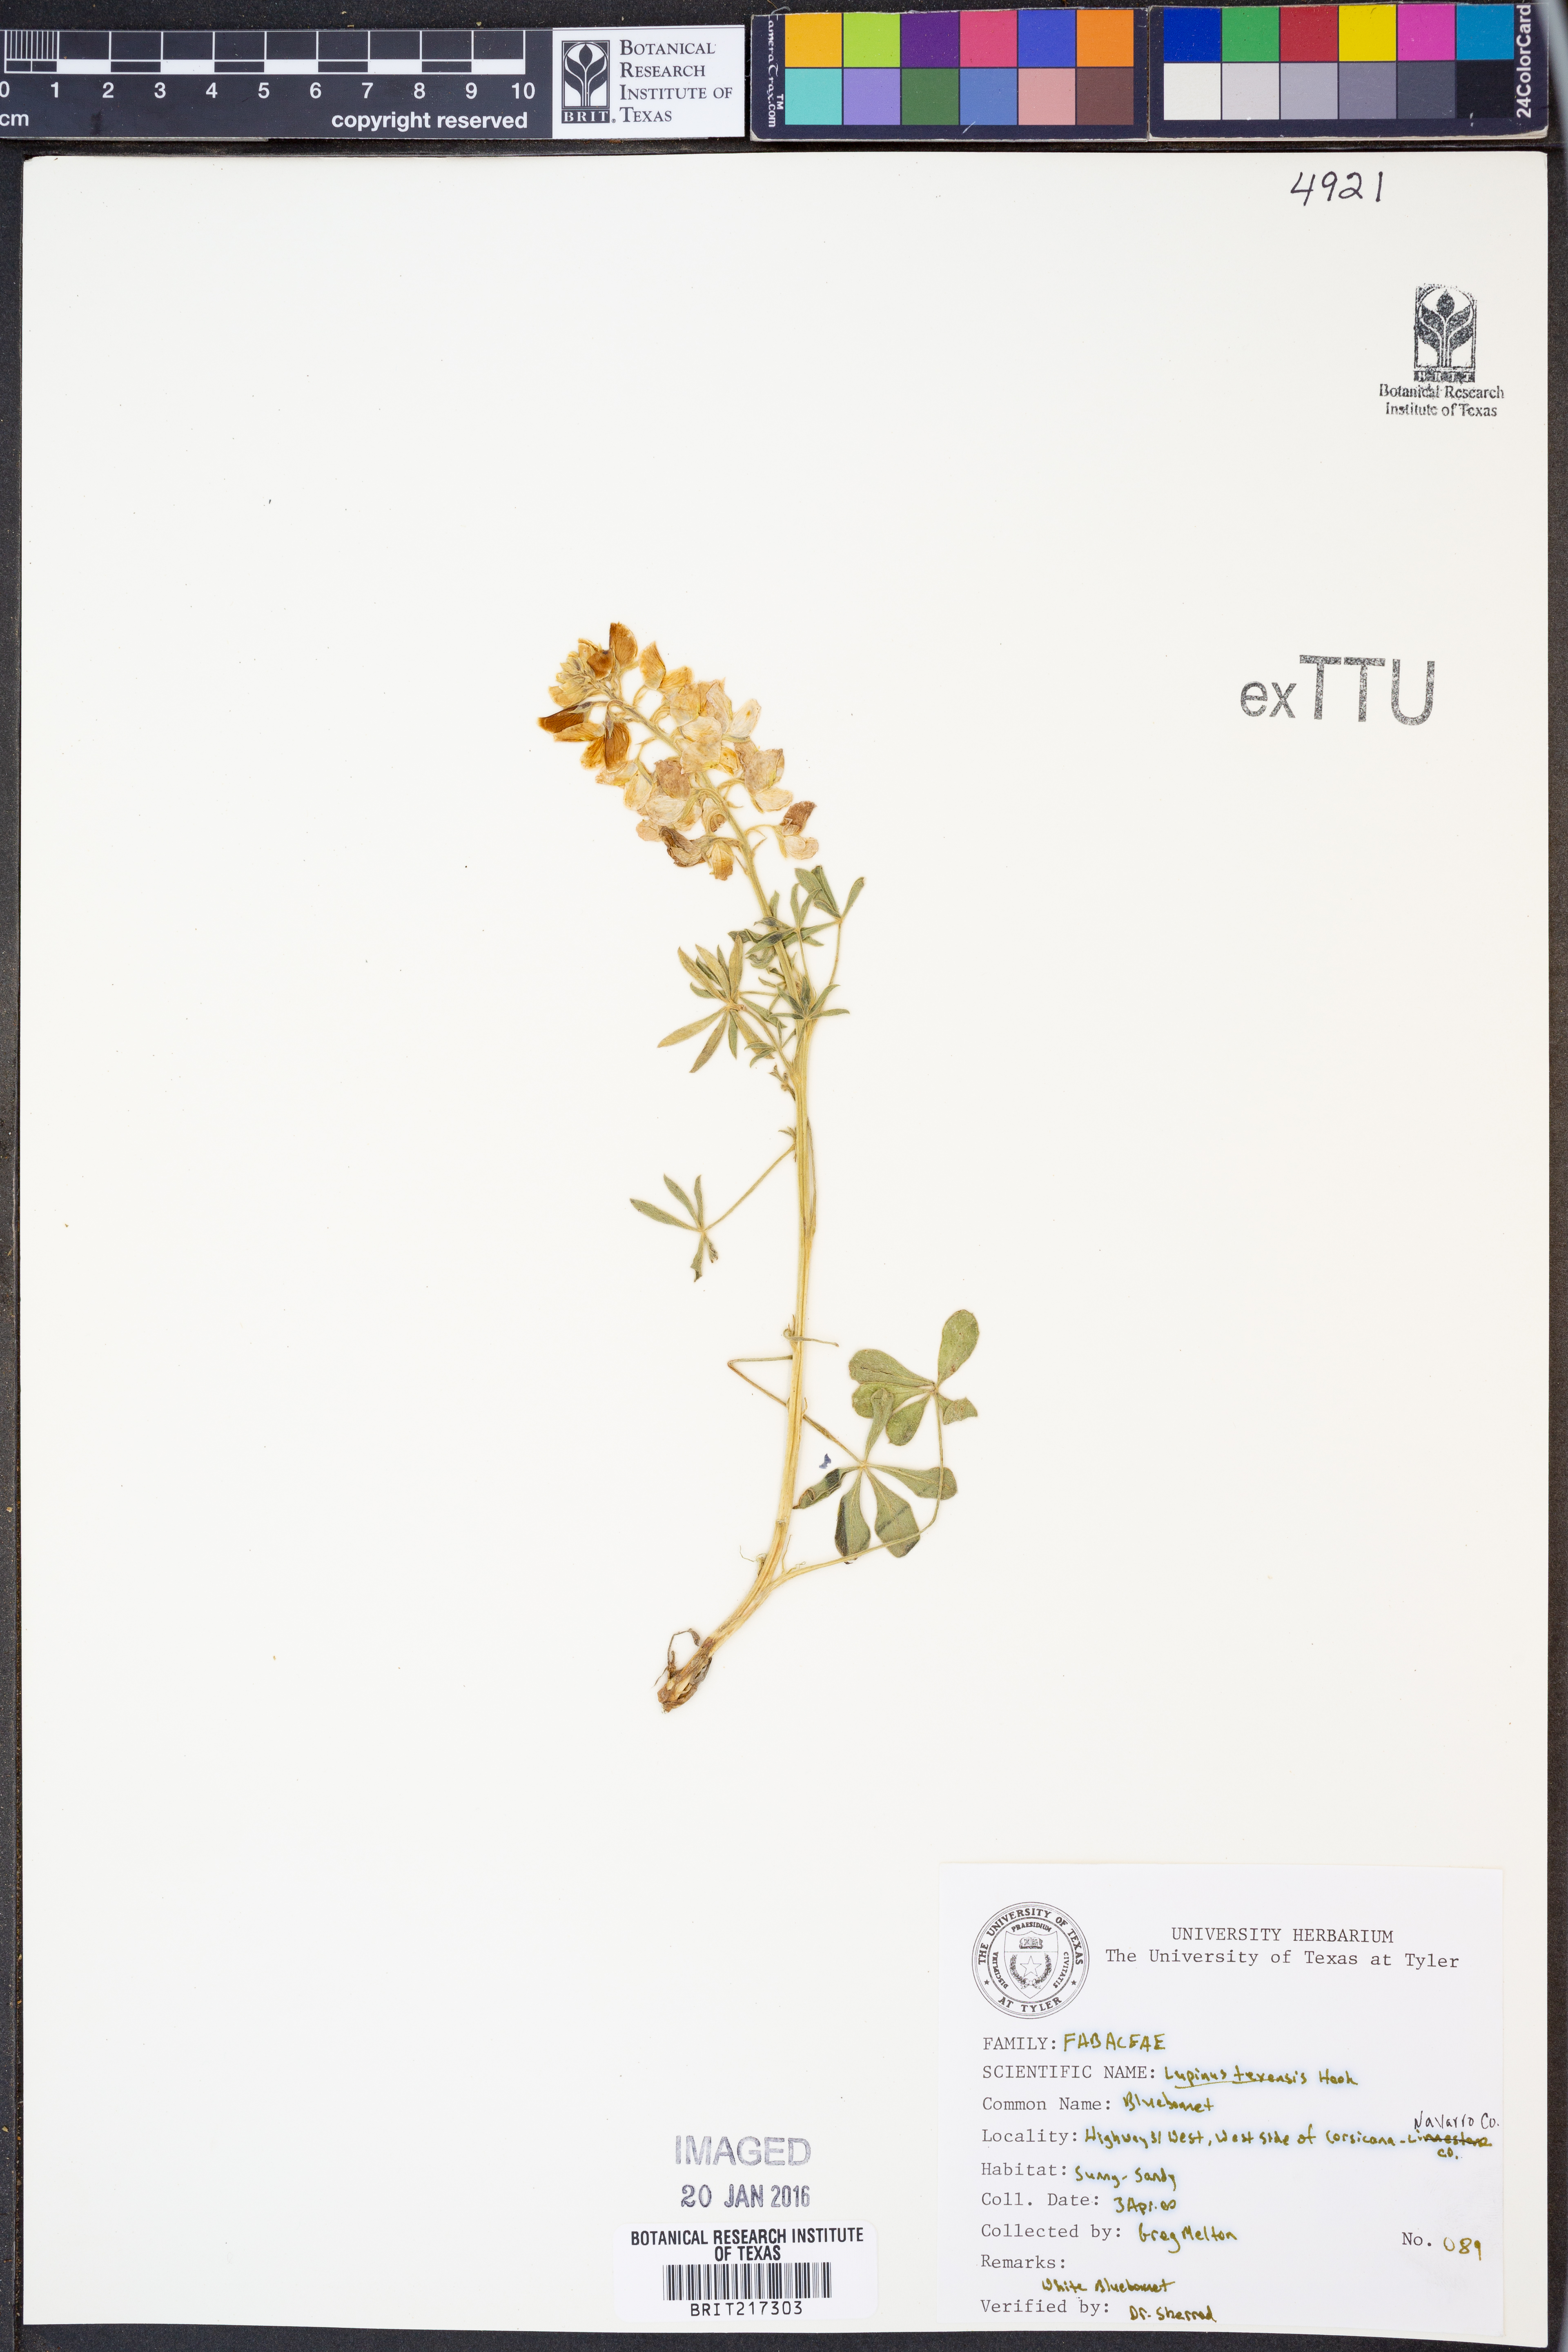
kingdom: Plantae
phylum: Tracheophyta
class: Magnoliopsida
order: Fabales
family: Fabaceae
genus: Lupinus
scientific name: Lupinus texensis
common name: Texas bluebonnet
